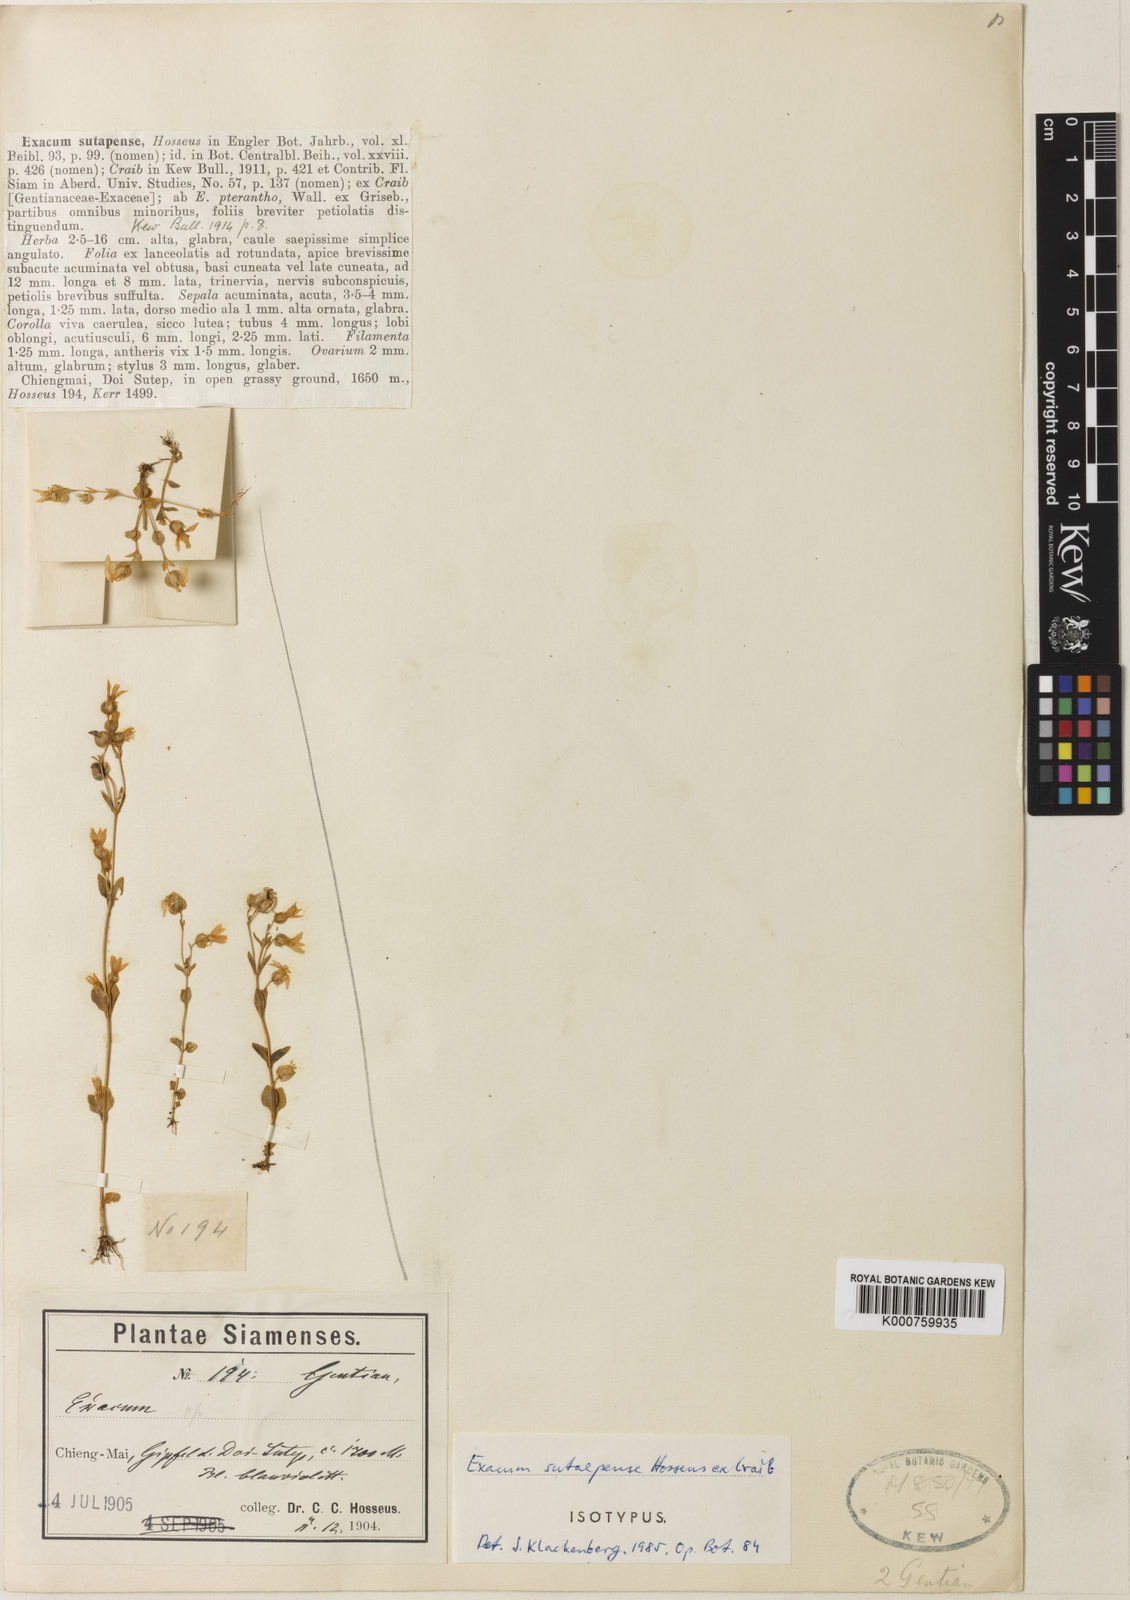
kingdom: Plantae
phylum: Tracheophyta
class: Magnoliopsida
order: Gentianales
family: Gentianaceae
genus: Exacum
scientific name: Exacum sutaepense
